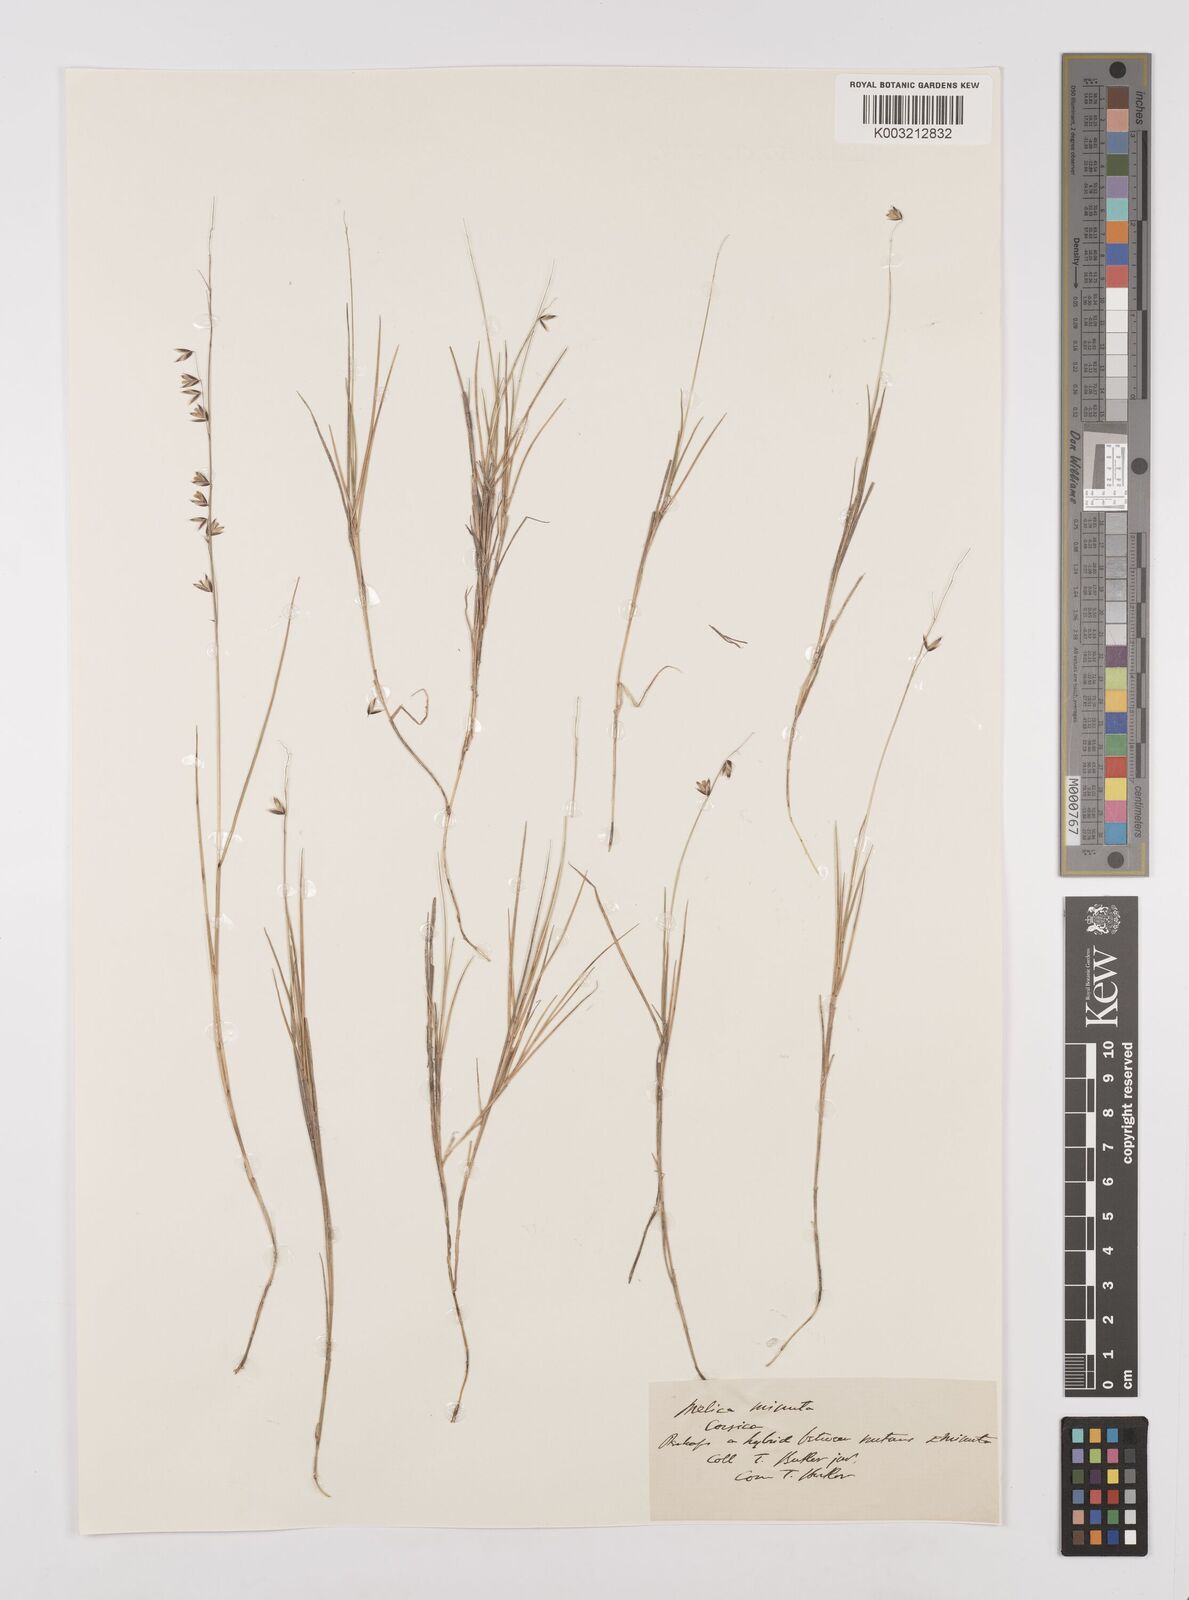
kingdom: Plantae
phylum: Tracheophyta
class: Liliopsida
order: Poales
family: Poaceae
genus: Melica
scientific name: Melica minuta
